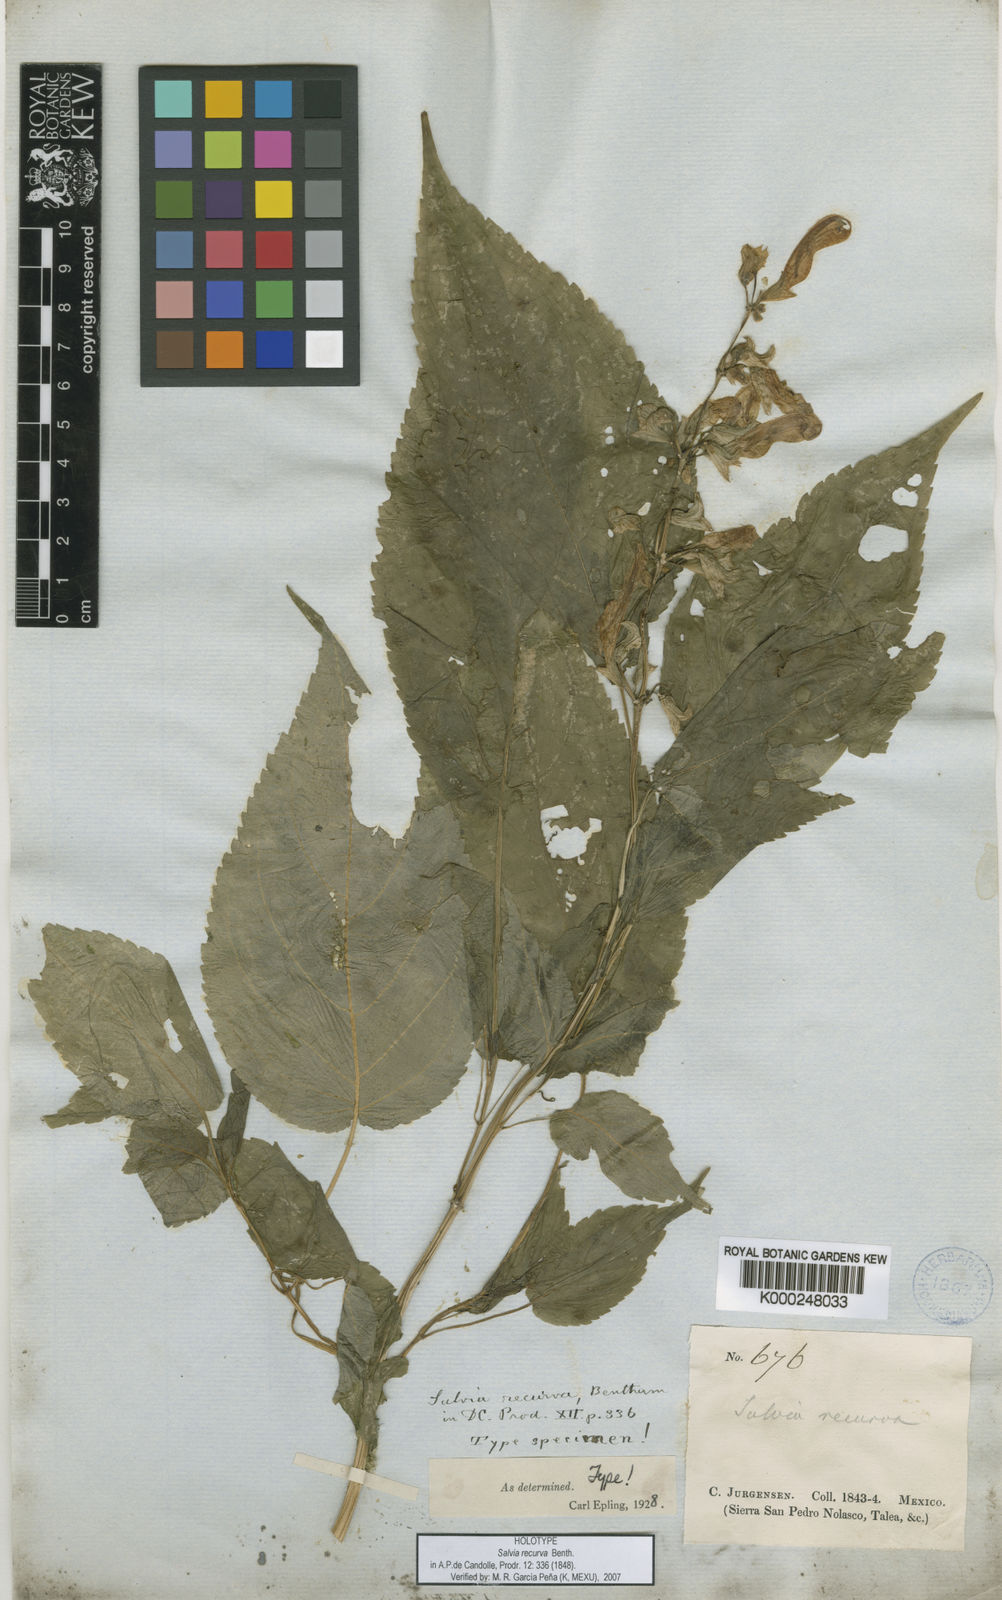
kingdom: Plantae
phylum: Tracheophyta
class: Magnoliopsida
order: Lamiales
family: Lamiaceae
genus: Salvia
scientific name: Salvia recurva
